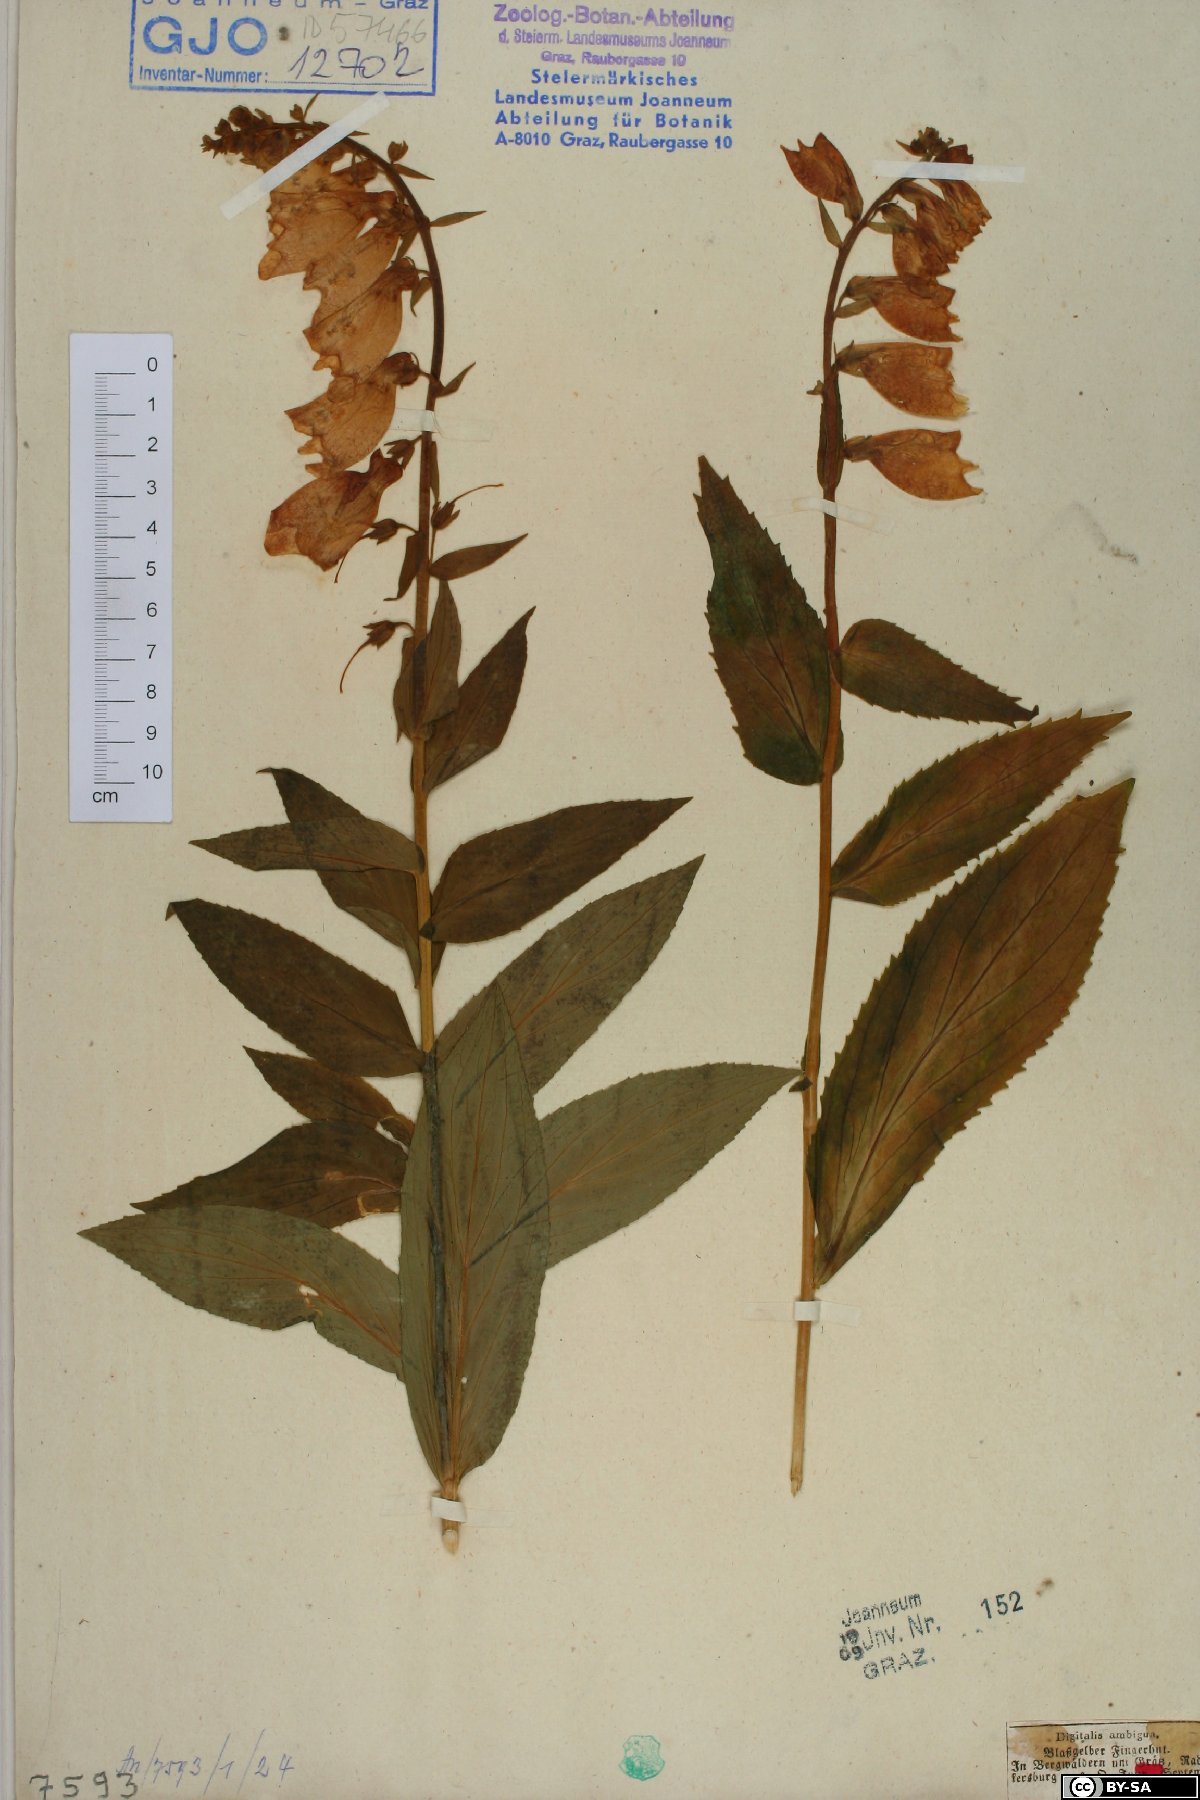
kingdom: Plantae
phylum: Tracheophyta
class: Magnoliopsida
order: Lamiales
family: Plantaginaceae
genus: Digitalis
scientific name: Digitalis grandiflora
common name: Yellow foxglove
